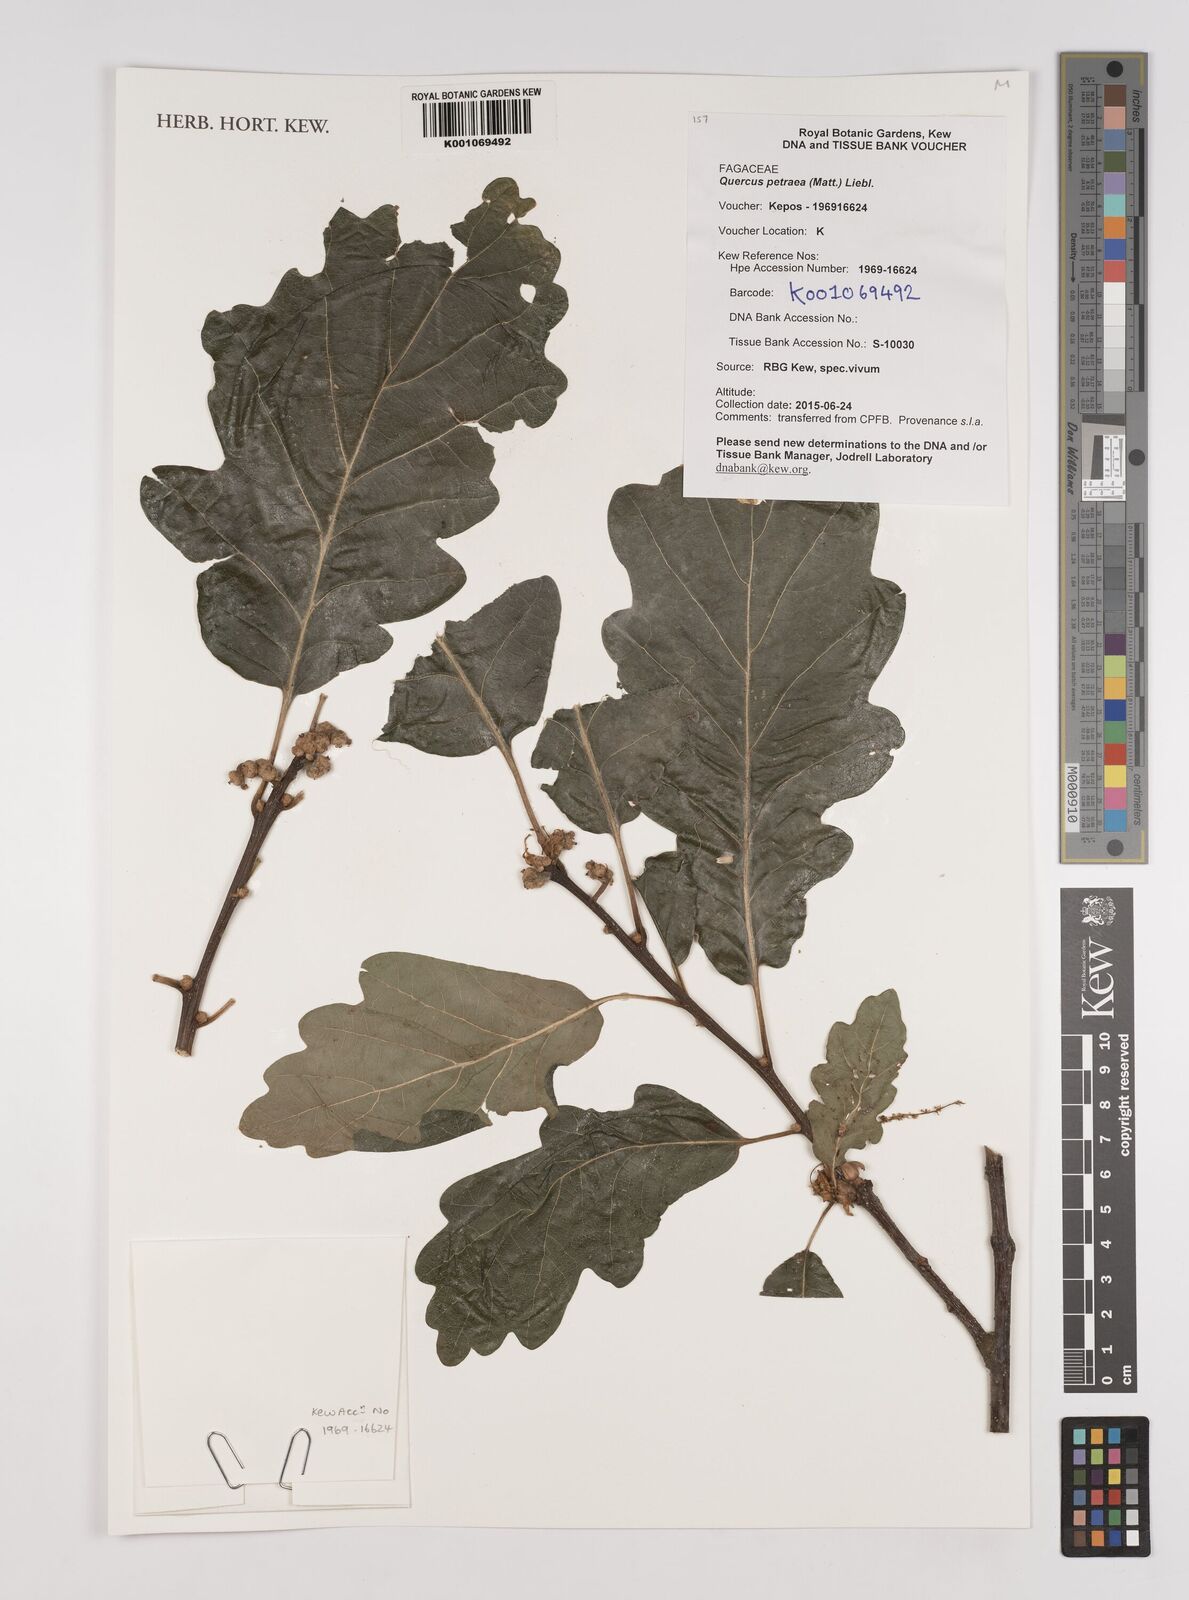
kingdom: Plantae
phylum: Tracheophyta
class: Magnoliopsida
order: Fagales
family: Fagaceae
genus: Quercus
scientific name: Quercus petraea
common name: Sessile oak
